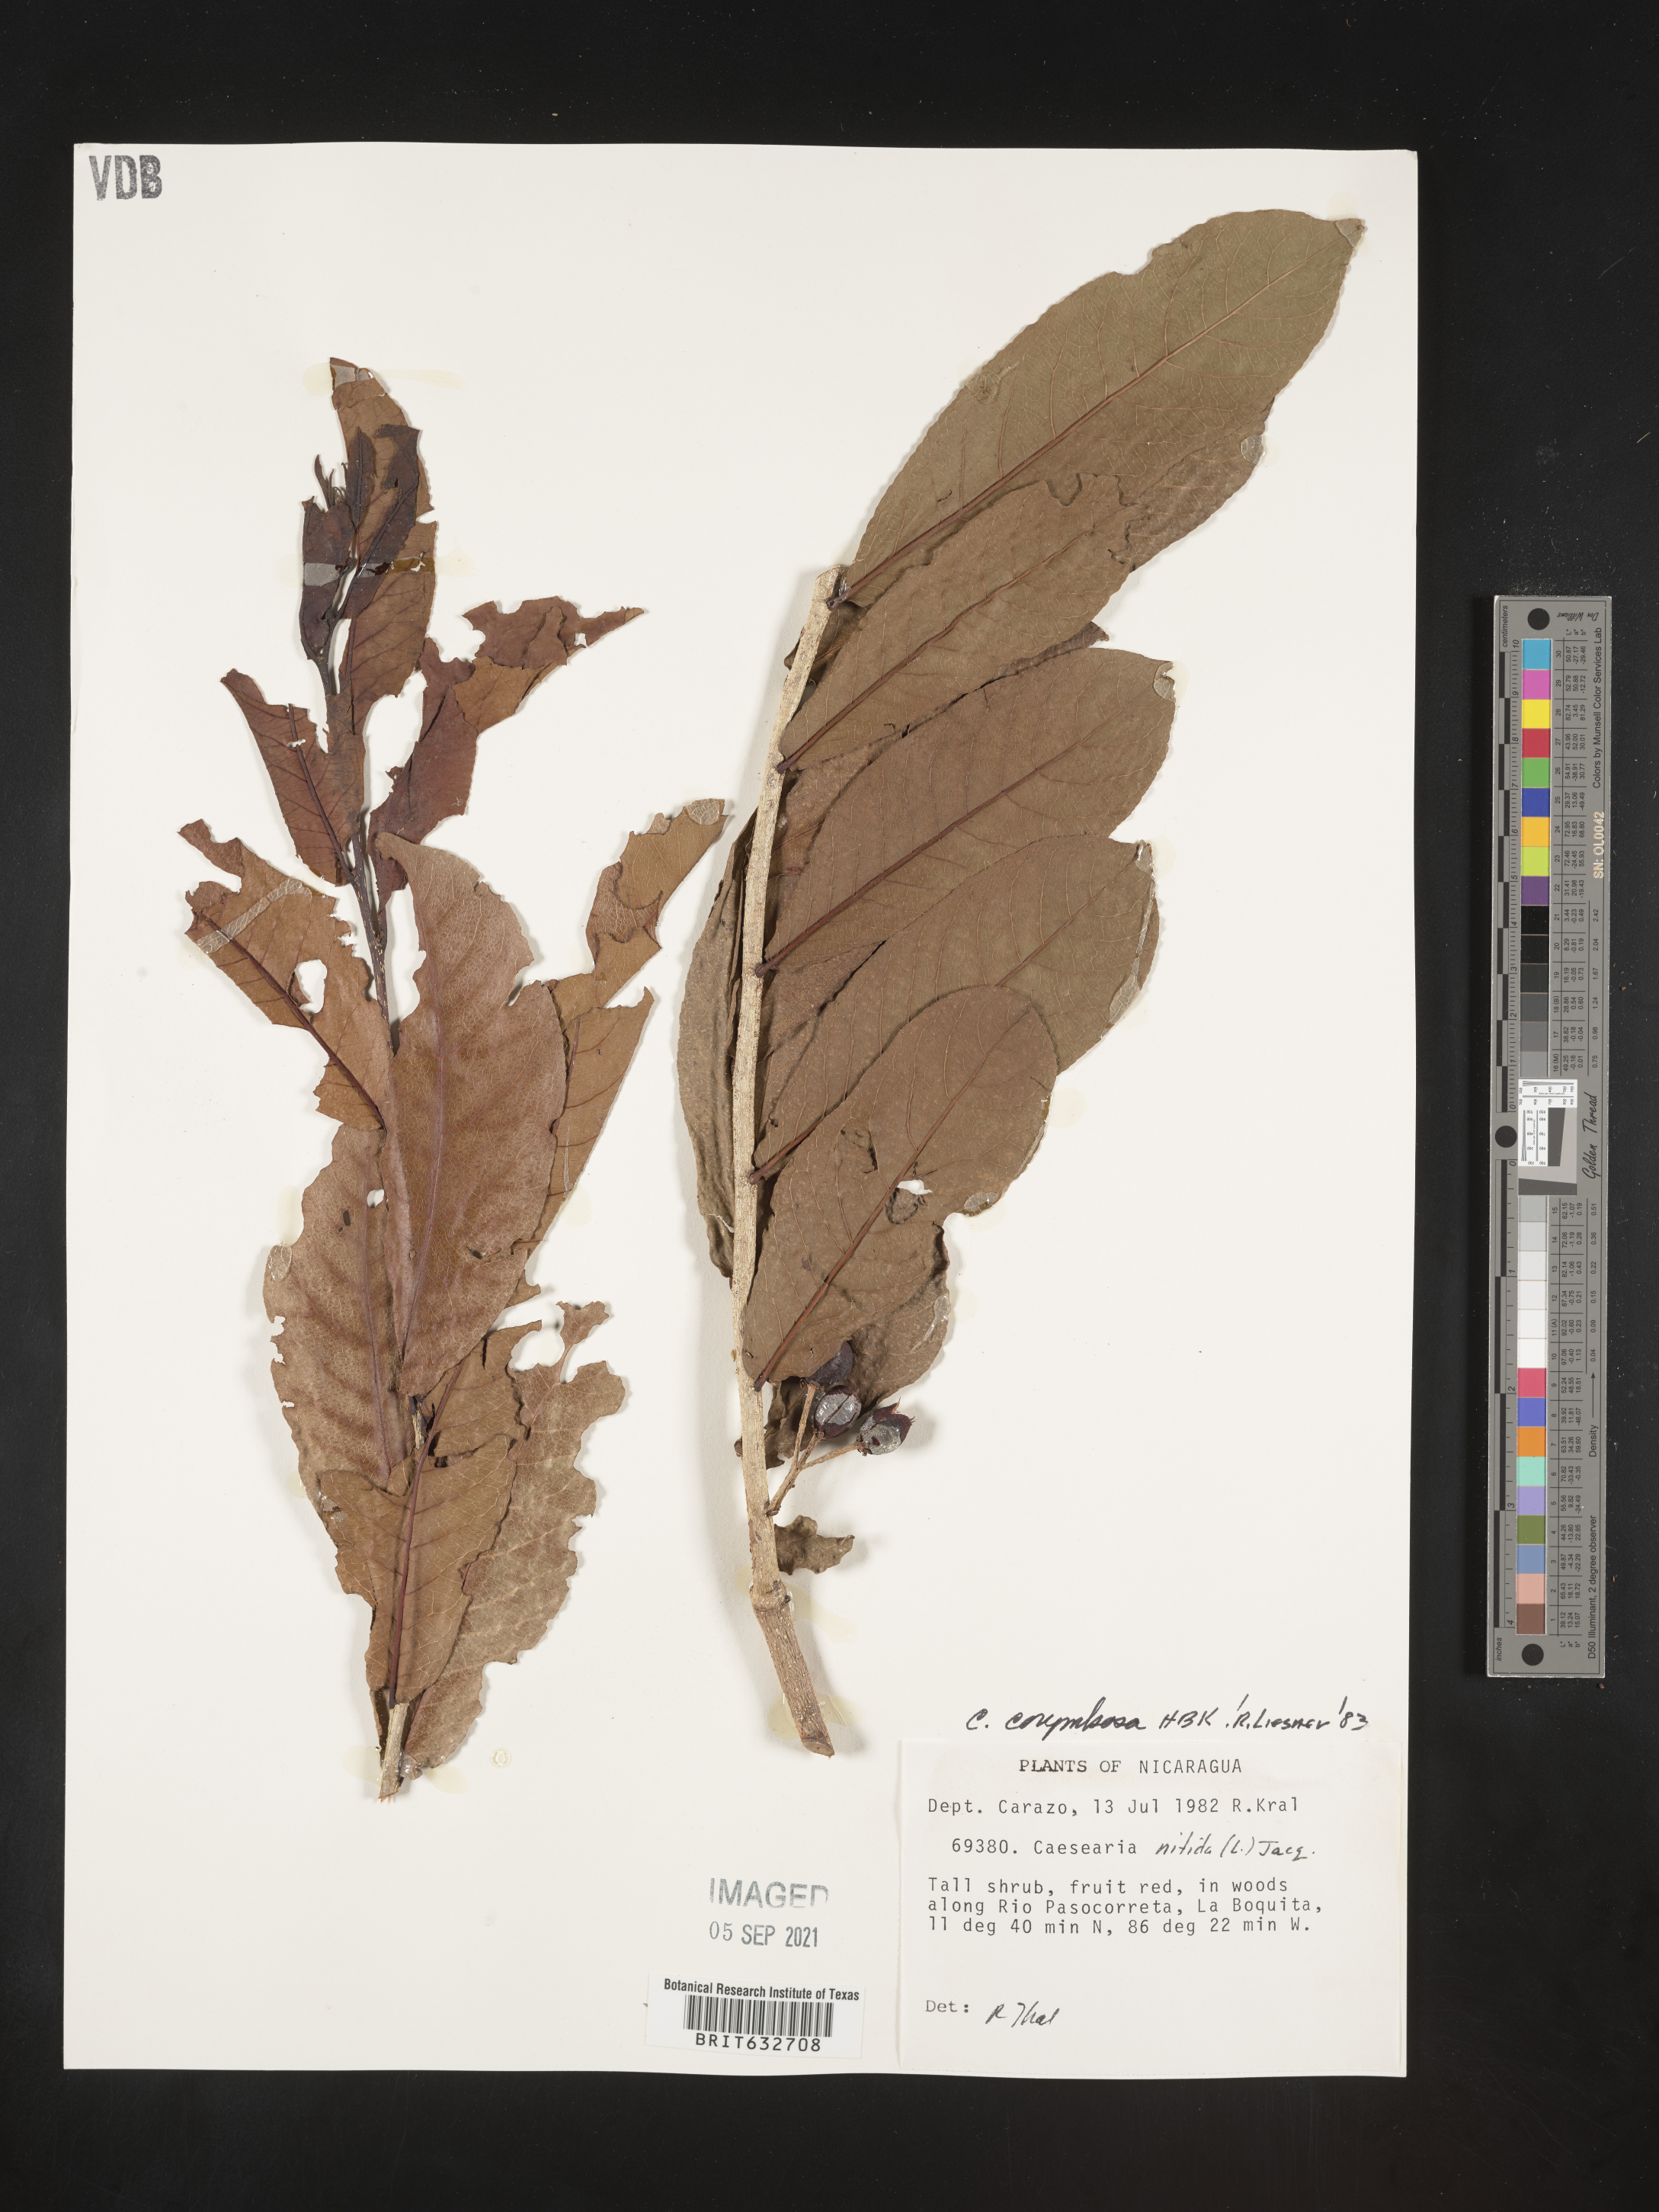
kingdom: Plantae
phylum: Tracheophyta
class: Magnoliopsida
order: Malpighiales
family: Salicaceae
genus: Casearia
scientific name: Casearia
